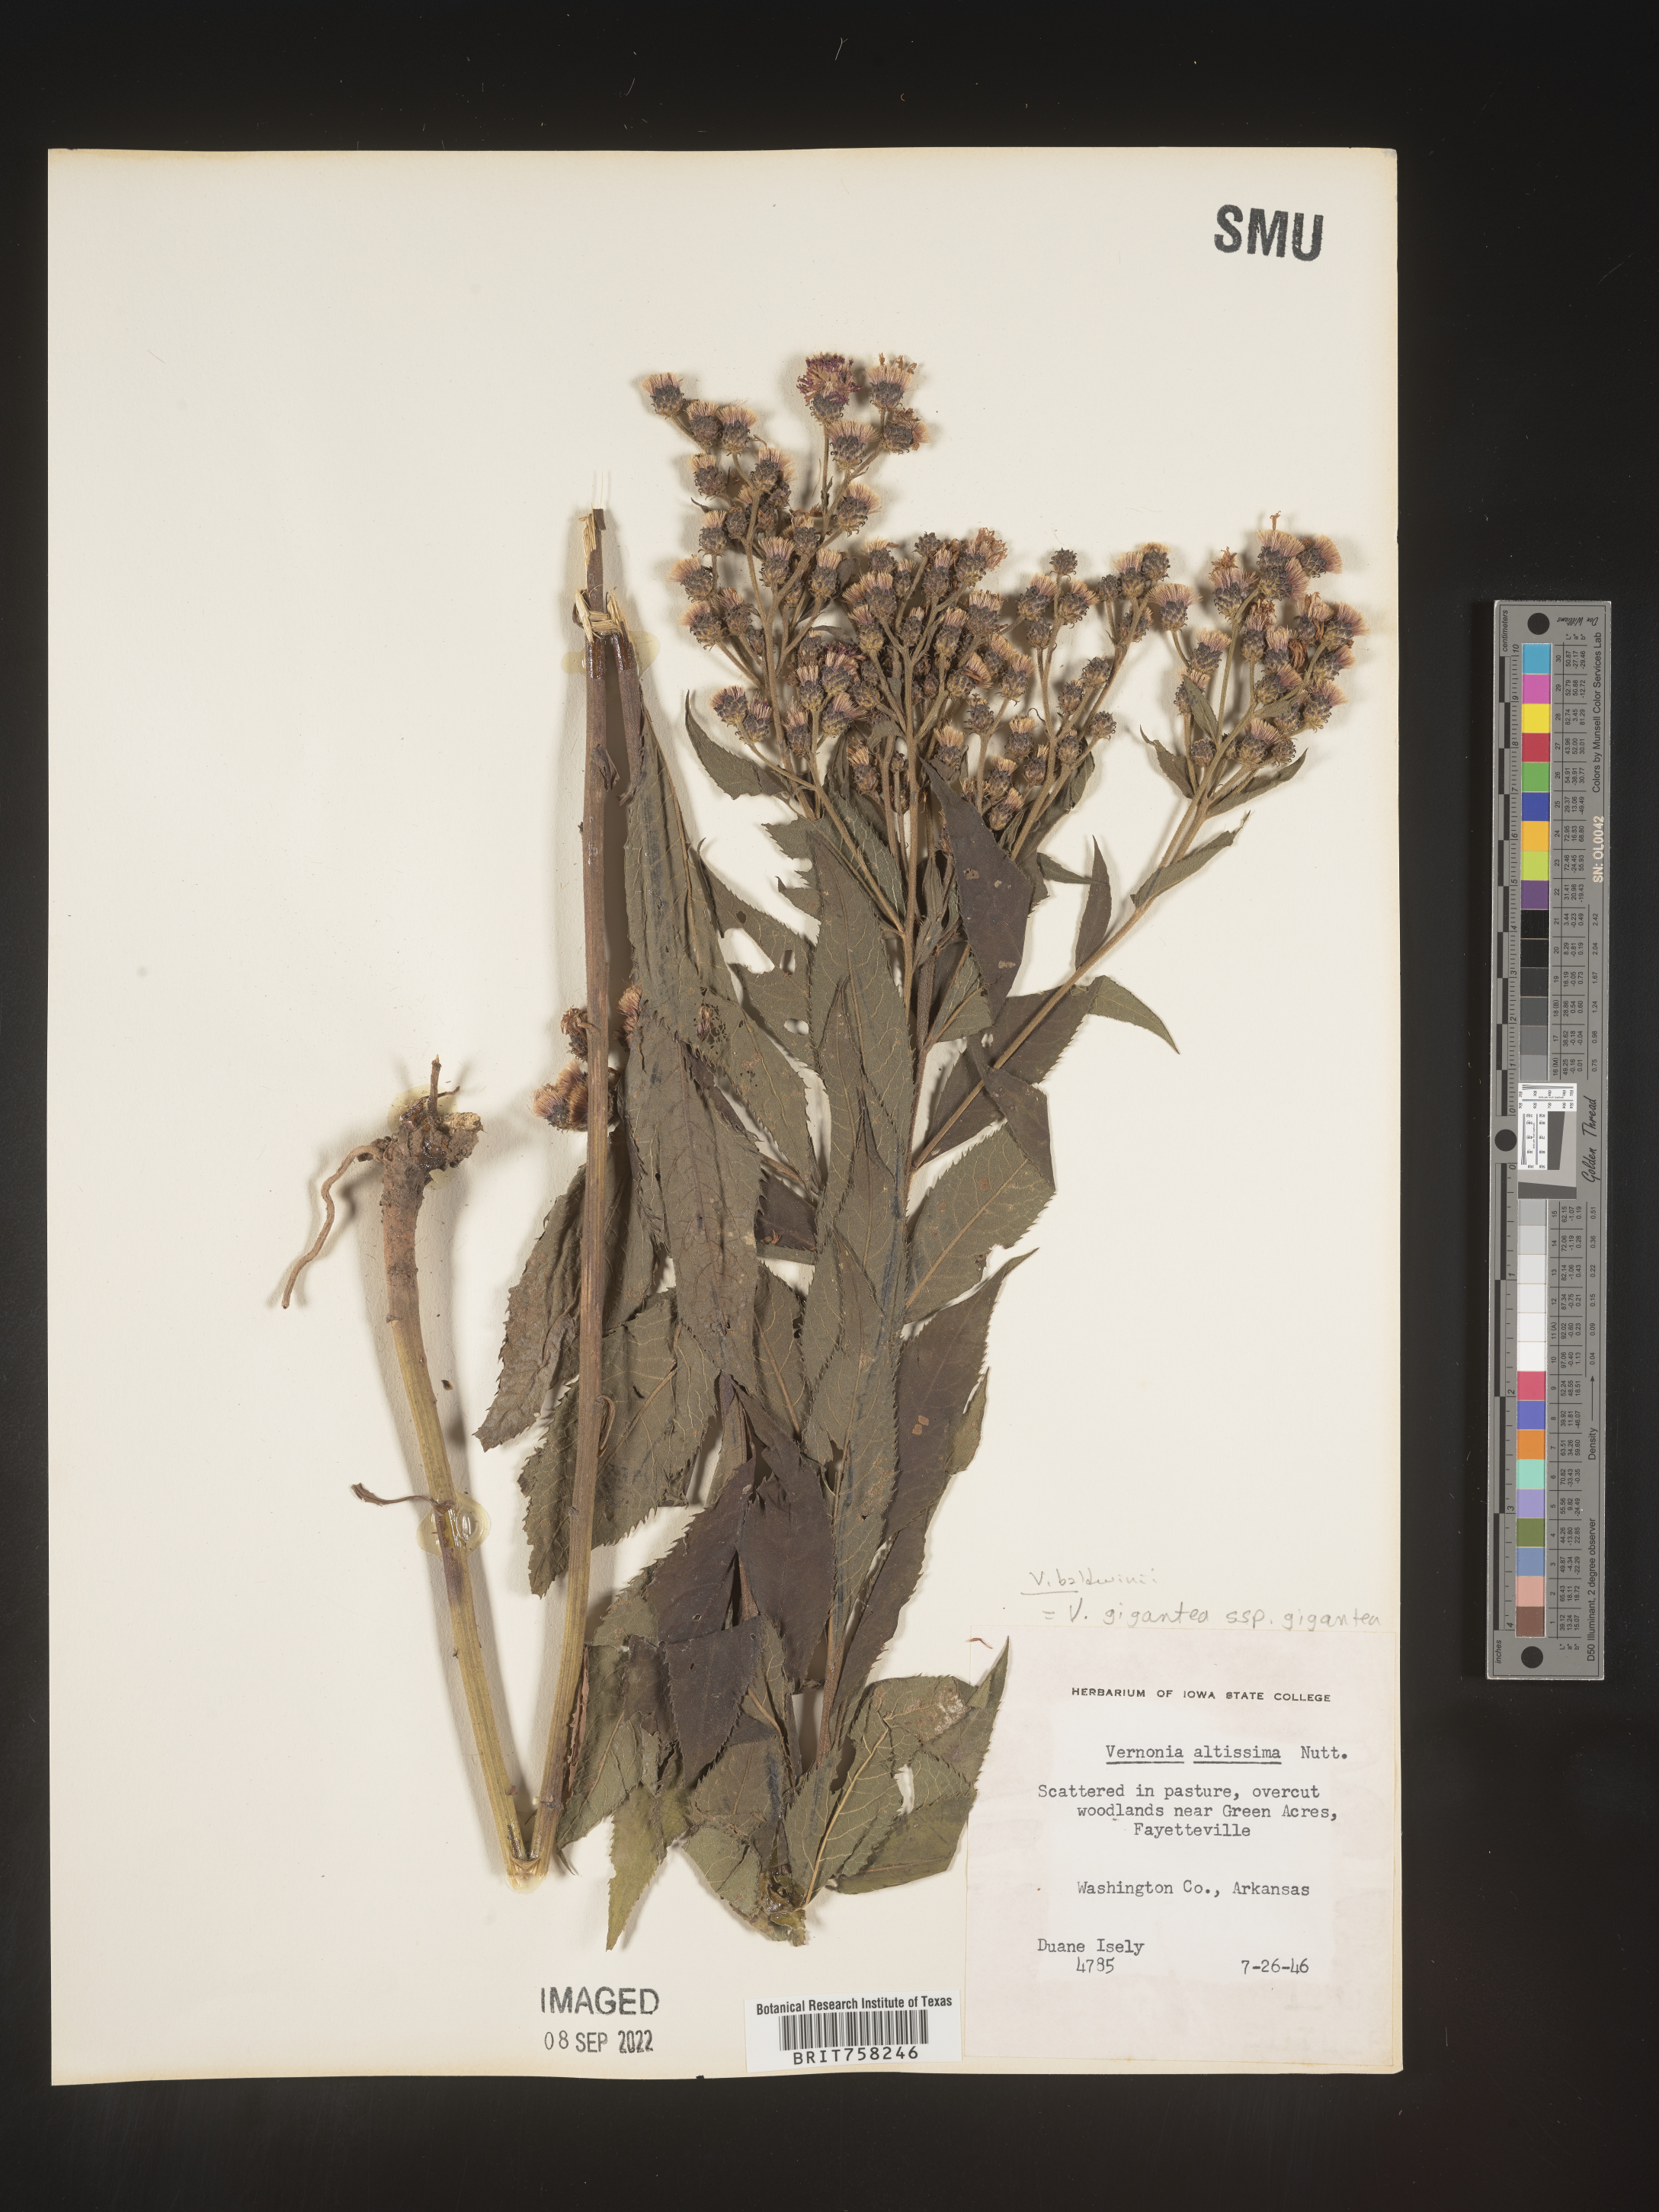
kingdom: Plantae
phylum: Tracheophyta
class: Magnoliopsida
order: Asterales
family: Asteraceae
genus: Vernonia
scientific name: Vernonia baldwinii
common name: Western ironweed
